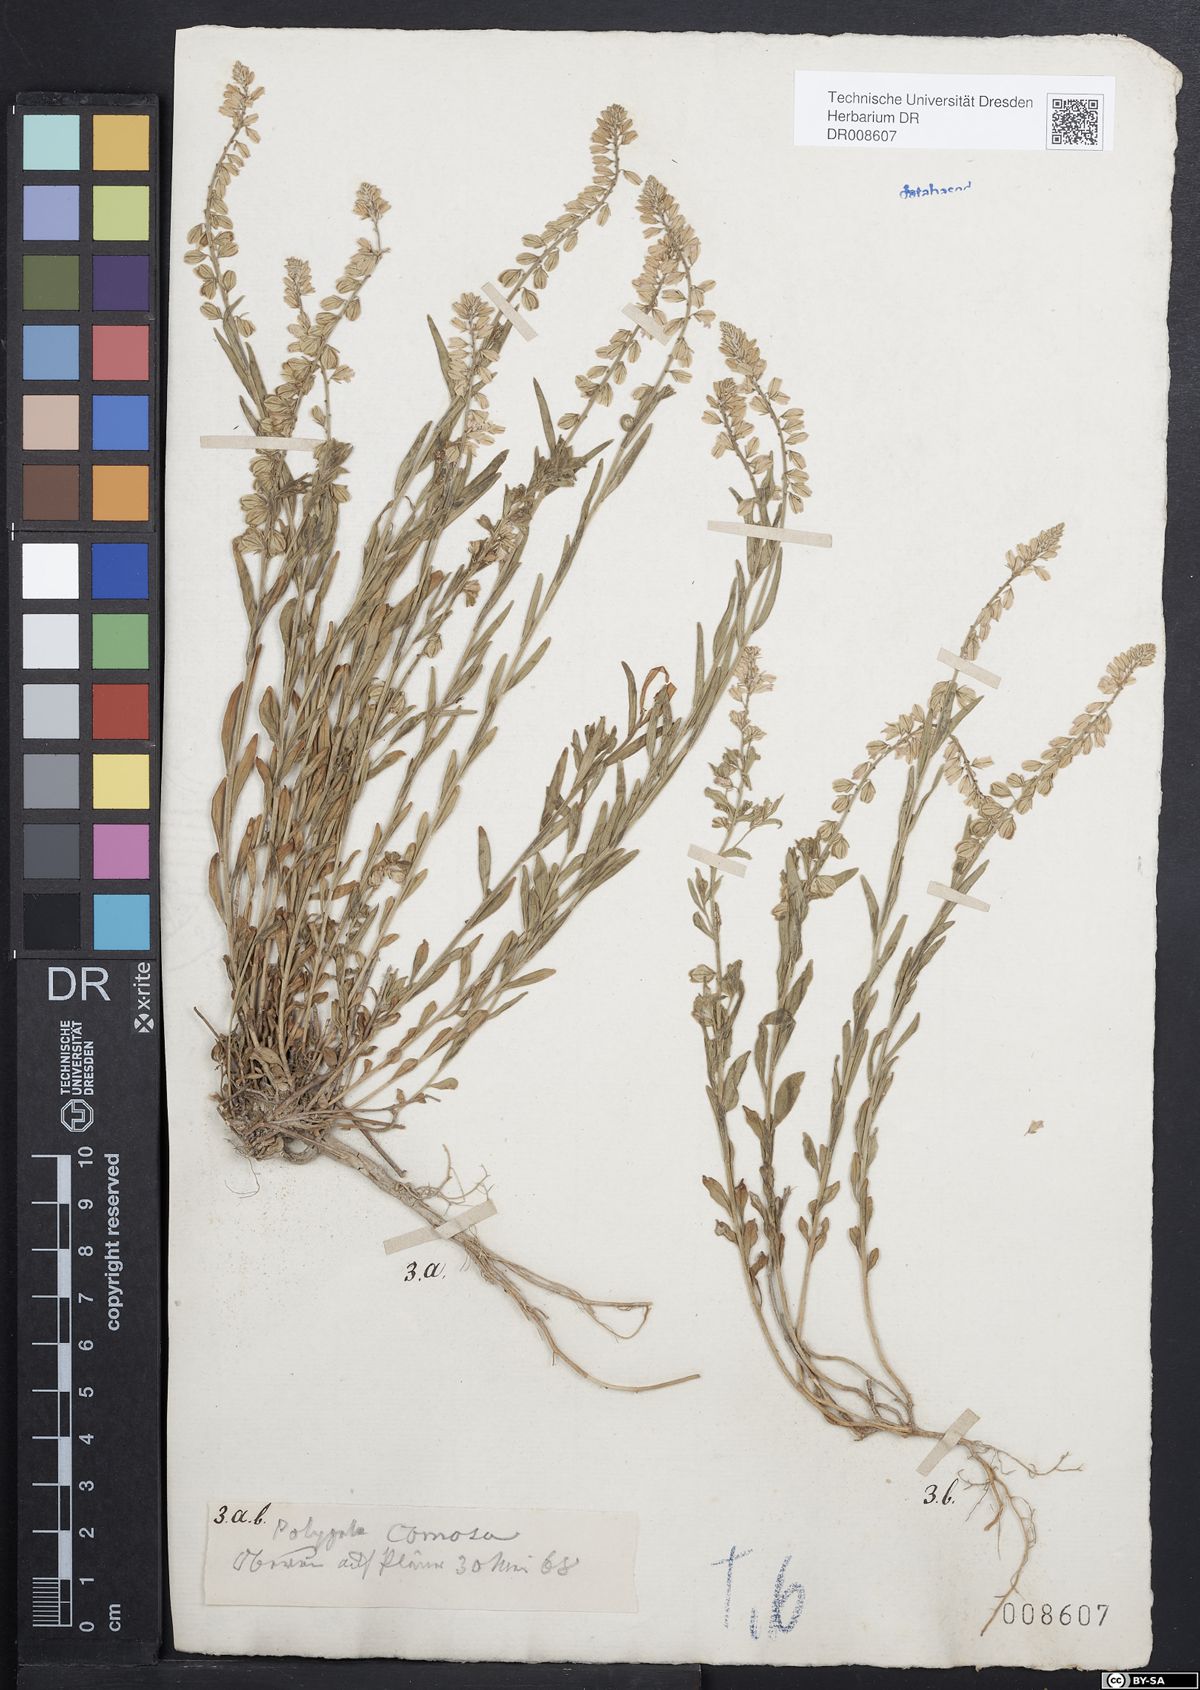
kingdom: Plantae
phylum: Tracheophyta
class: Magnoliopsida
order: Fabales
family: Polygalaceae
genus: Polygala
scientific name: Polygala comosa
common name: Tufted milkwort
